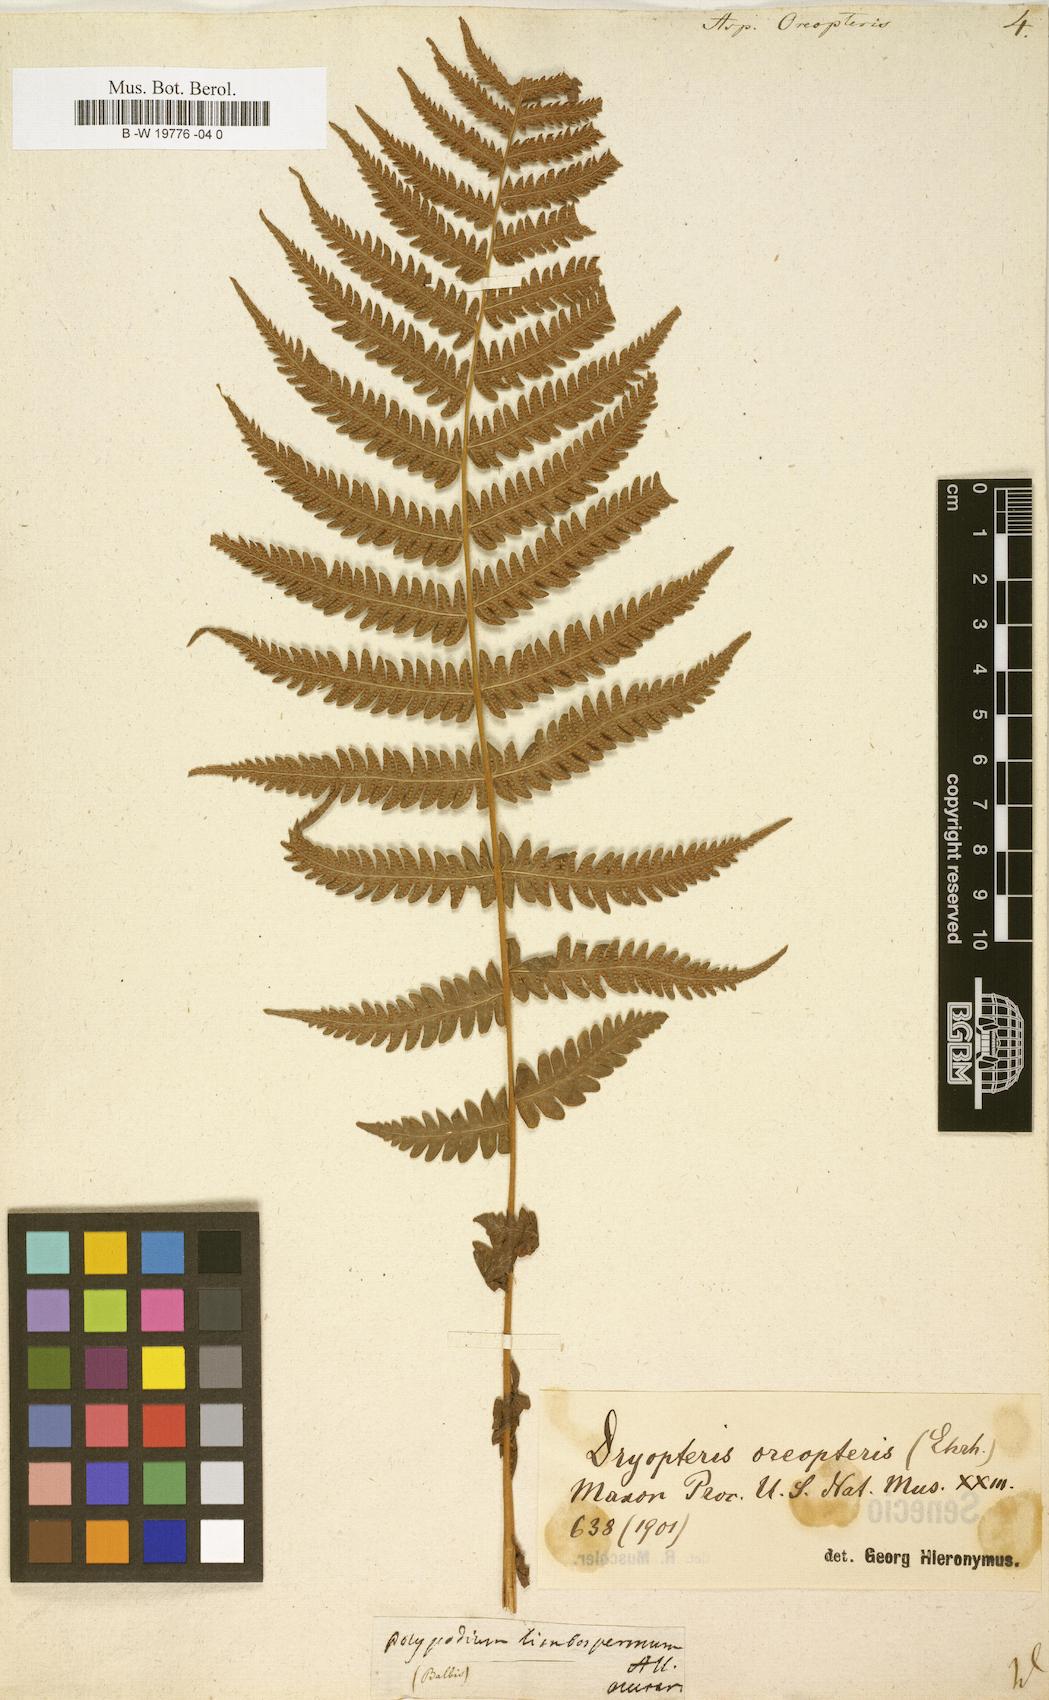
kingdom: Plantae
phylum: Tracheophyta
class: Polypodiopsida
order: Polypodiales
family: Thelypteridaceae
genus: Oreopteris
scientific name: Oreopteris limbosperma
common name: Lemon-scented fern
